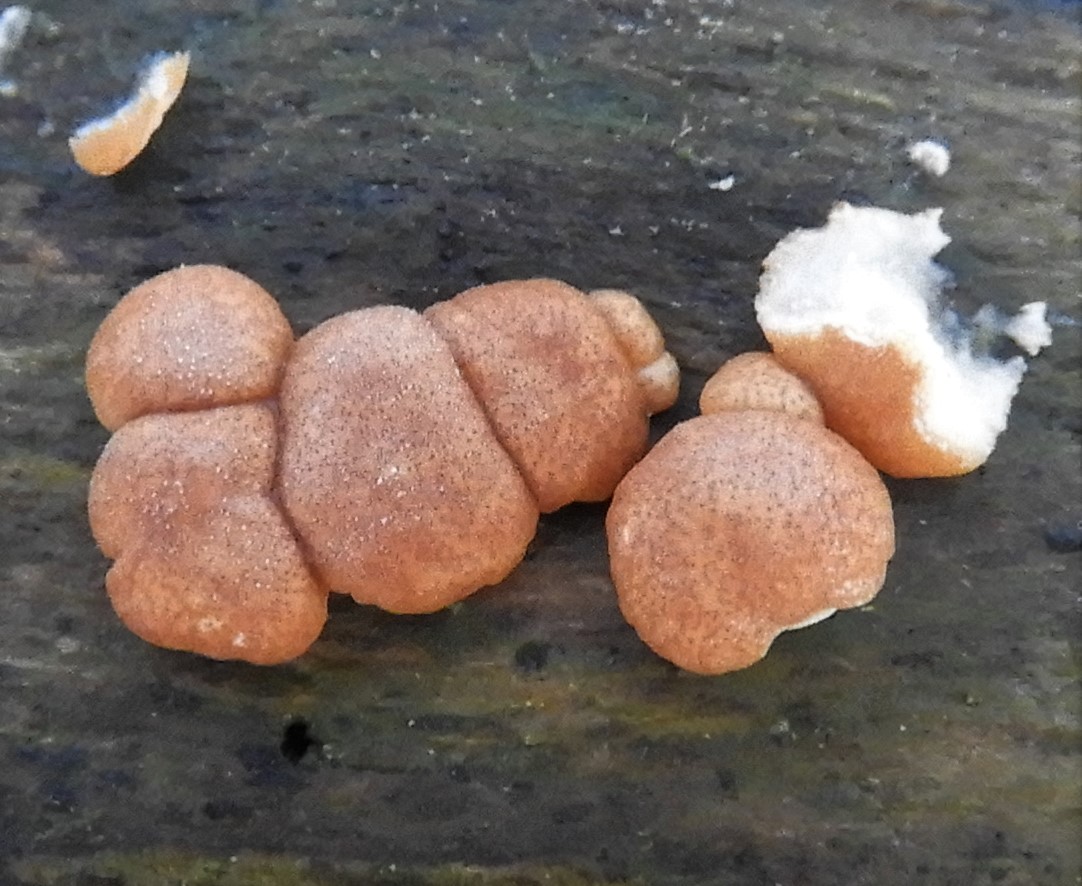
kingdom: Fungi
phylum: Ascomycota
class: Sordariomycetes
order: Hypocreales
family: Hypocreaceae
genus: Trichoderma
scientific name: Trichoderma europaeum
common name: rosabrun kødkerne
